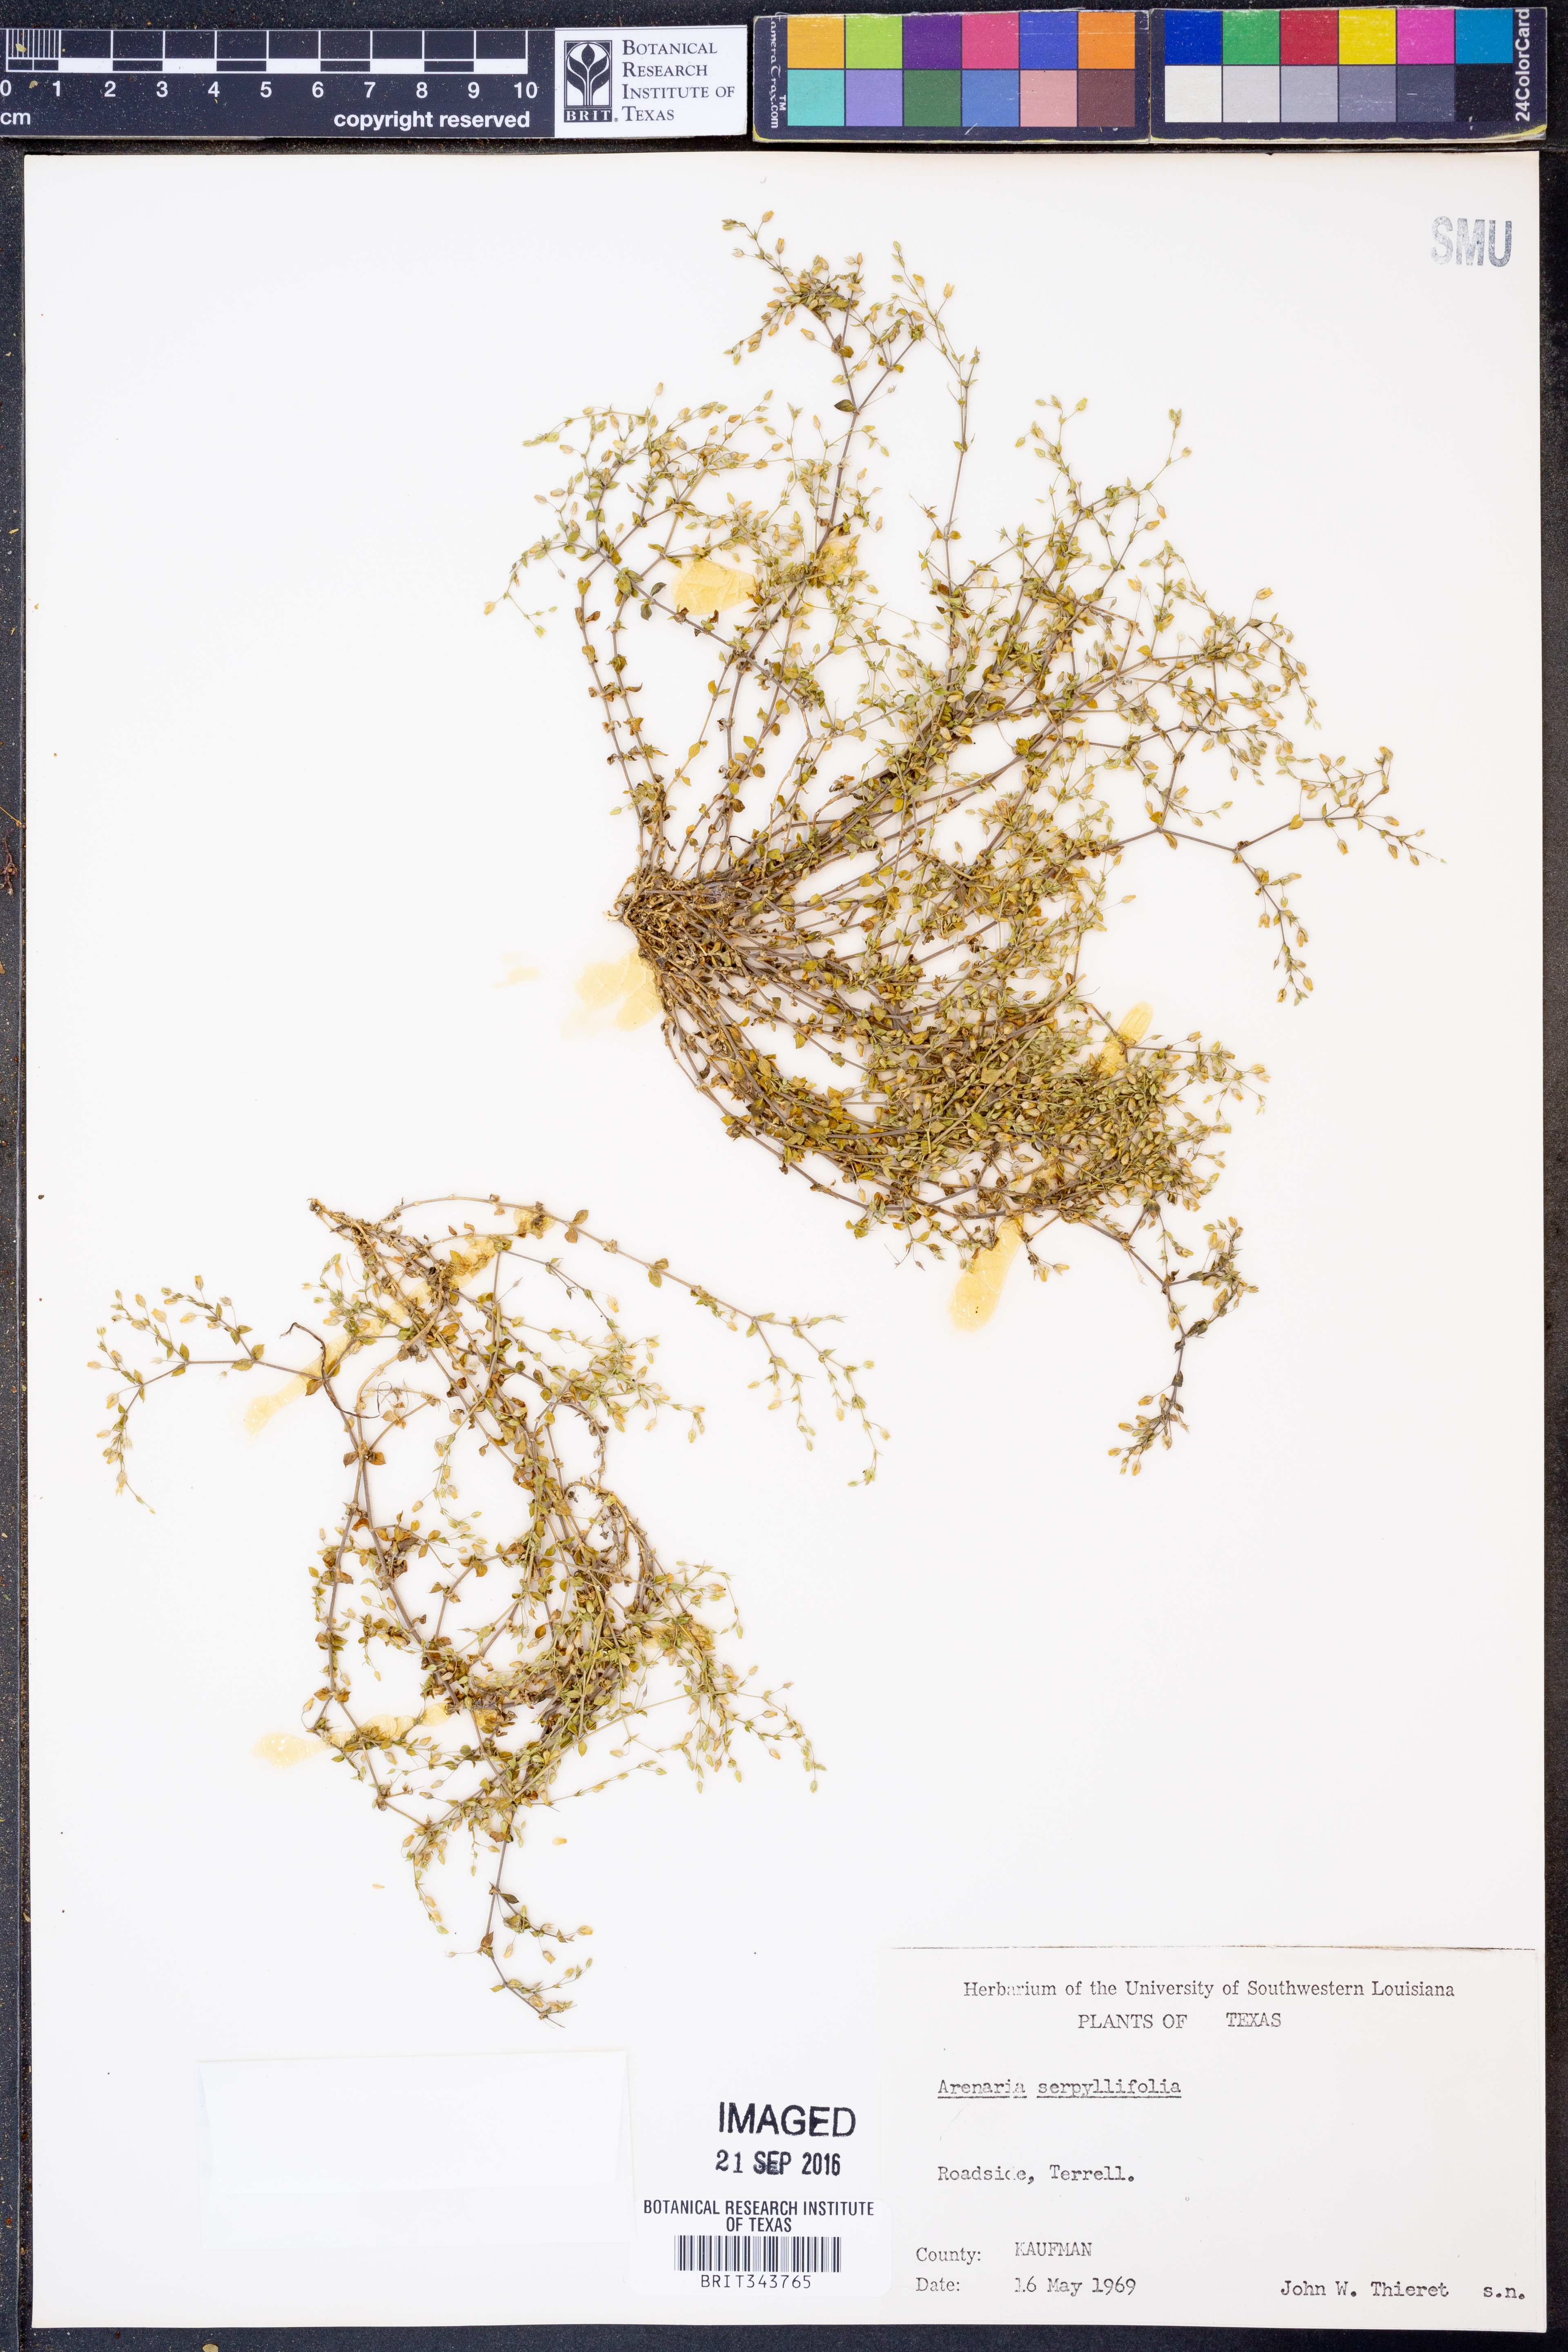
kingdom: Plantae
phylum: Tracheophyta
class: Magnoliopsida
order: Caryophyllales
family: Caryophyllaceae
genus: Arenaria
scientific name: Arenaria serpyllifolia
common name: Thyme-leaved sandwort
